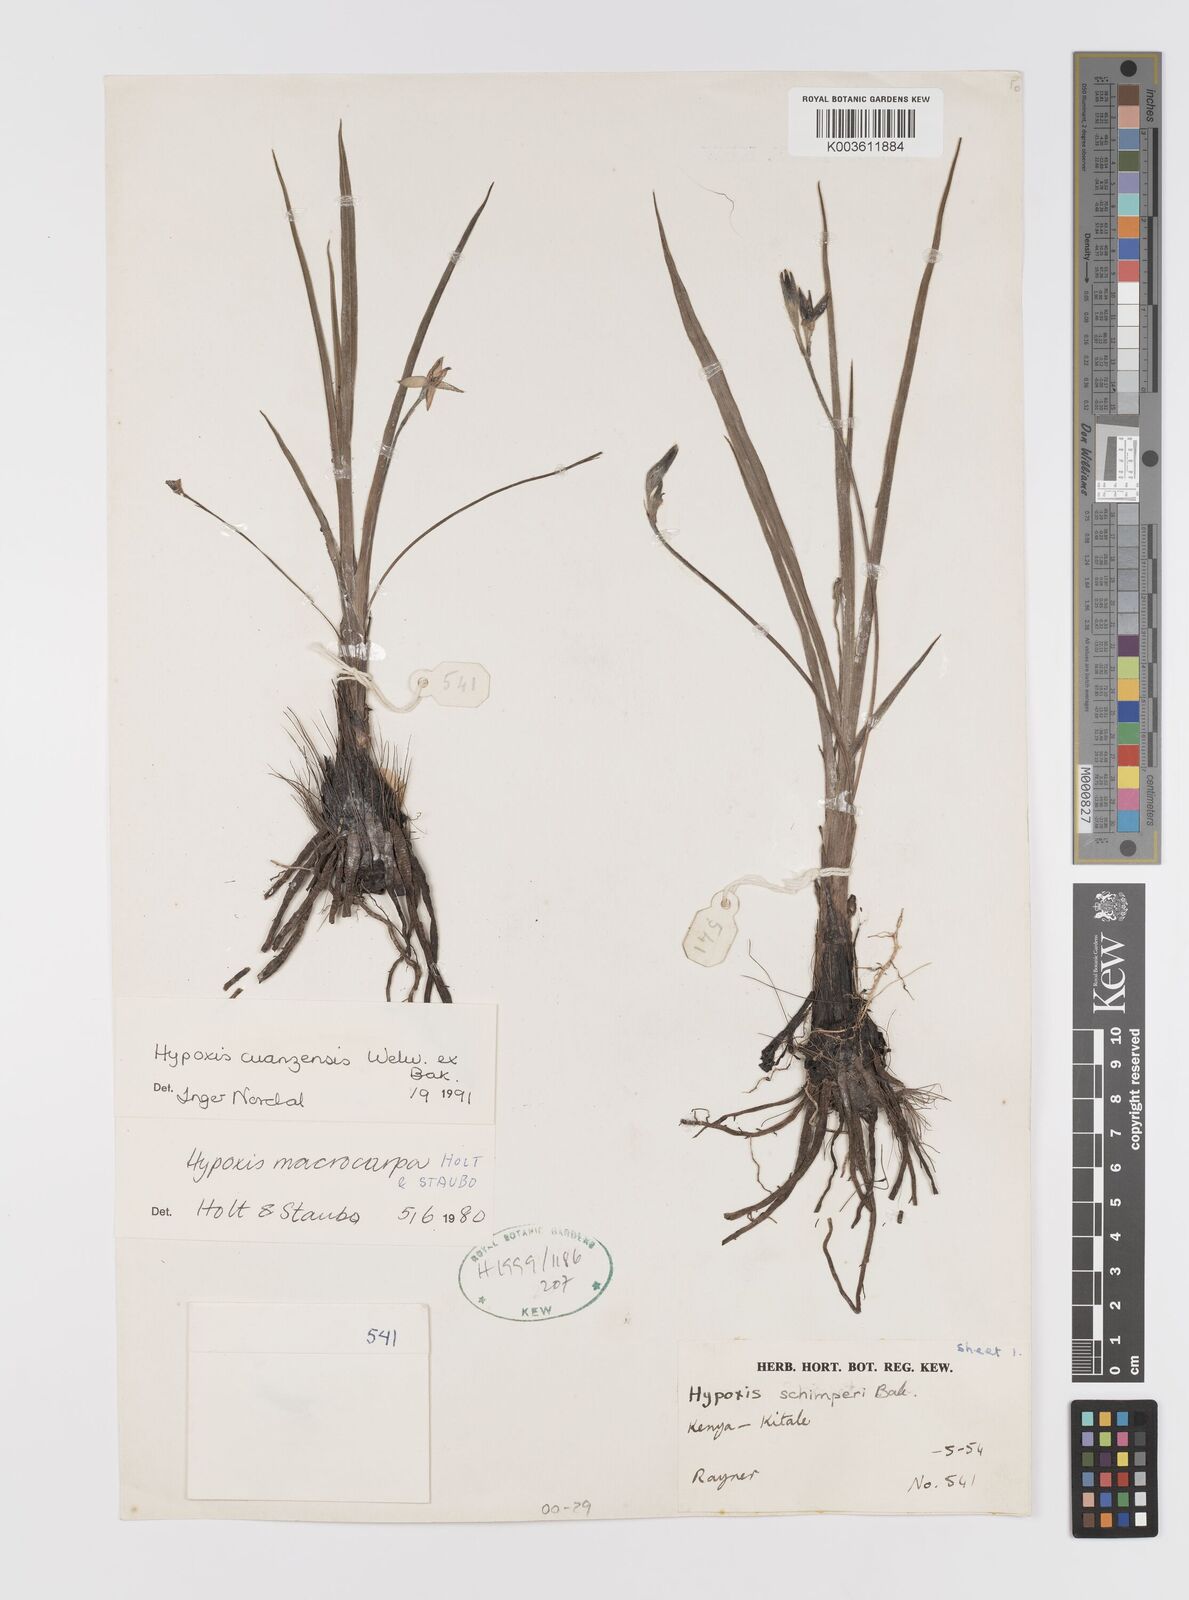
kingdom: Plantae
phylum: Tracheophyta
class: Liliopsida
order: Asparagales
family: Hypoxidaceae
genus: Hypoxis
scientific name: Hypoxis schimperi
